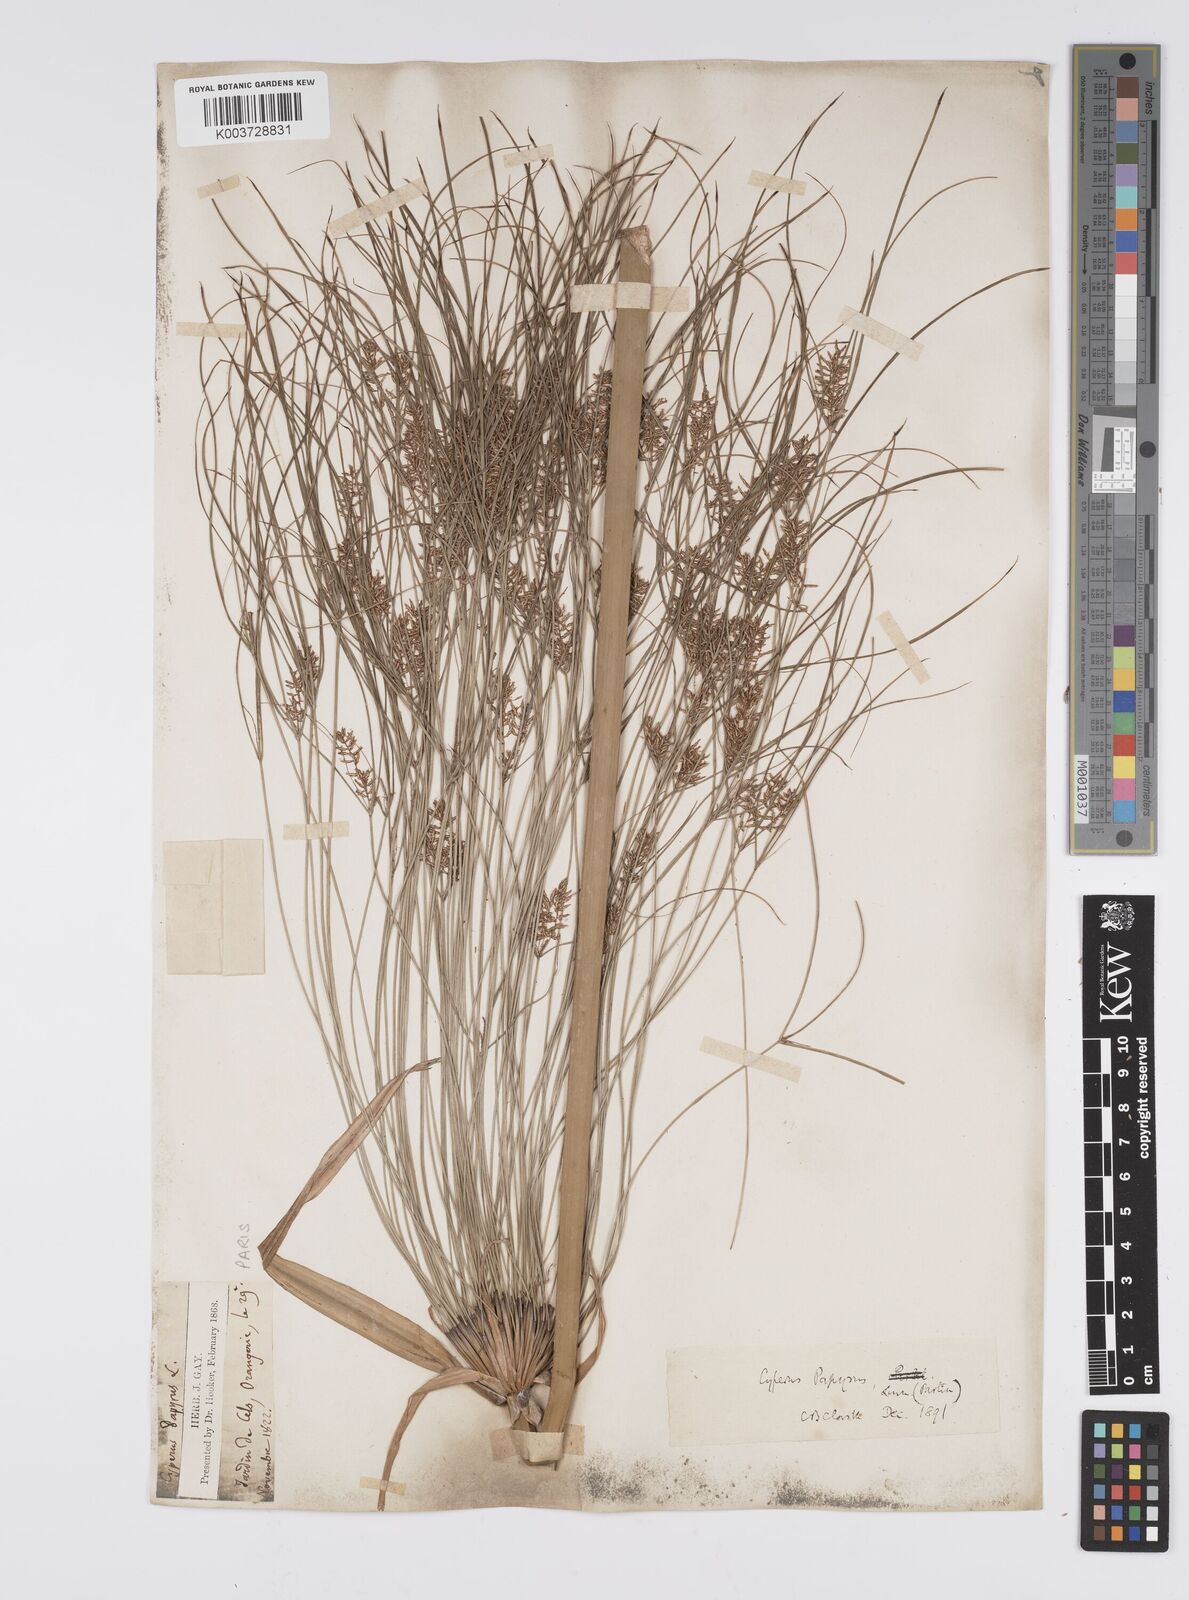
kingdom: Plantae
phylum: Tracheophyta
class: Liliopsida
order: Poales
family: Cyperaceae
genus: Cyperus
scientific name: Cyperus papyrus
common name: Papyrus
